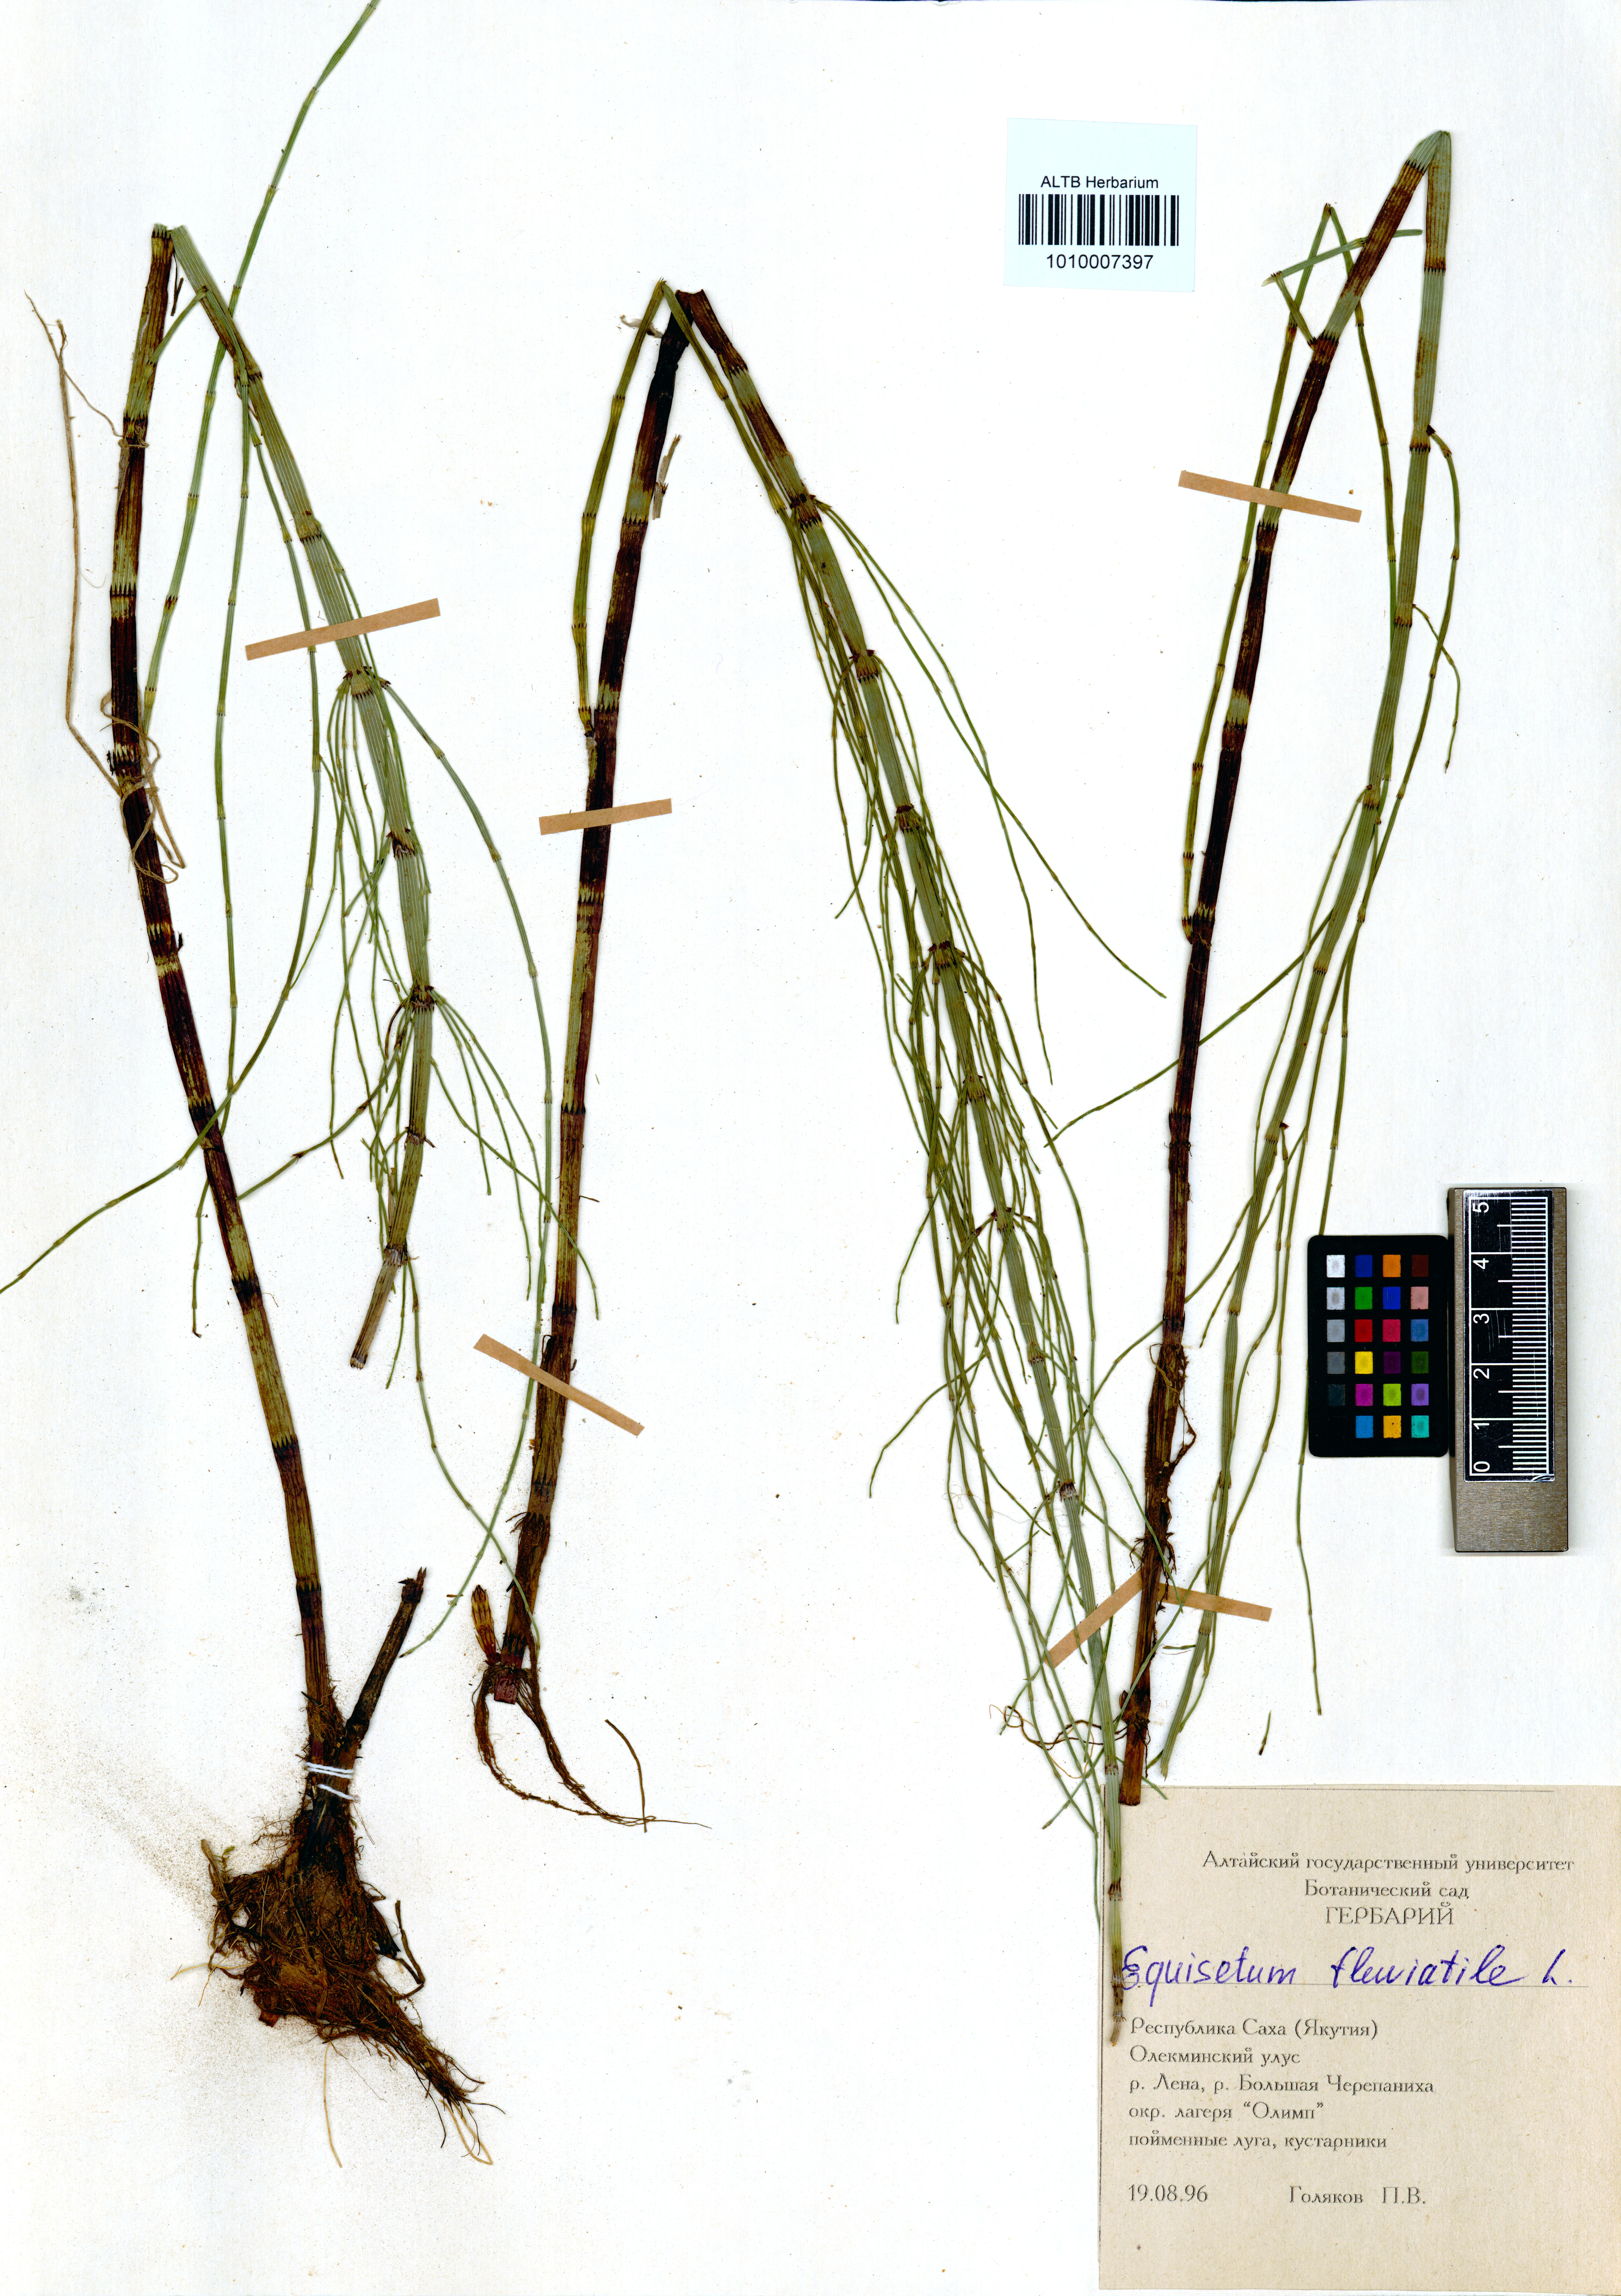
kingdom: Plantae
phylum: Tracheophyta
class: Polypodiopsida
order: Equisetales
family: Equisetaceae
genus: Equisetum
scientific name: Equisetum fluviatile
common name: Water horsetail
